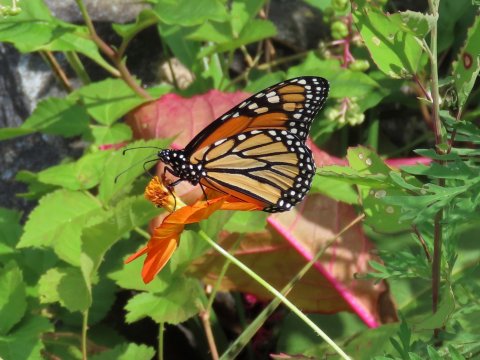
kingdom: Animalia
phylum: Arthropoda
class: Insecta
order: Lepidoptera
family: Nymphalidae
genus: Danaus
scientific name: Danaus plexippus
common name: Monarch
